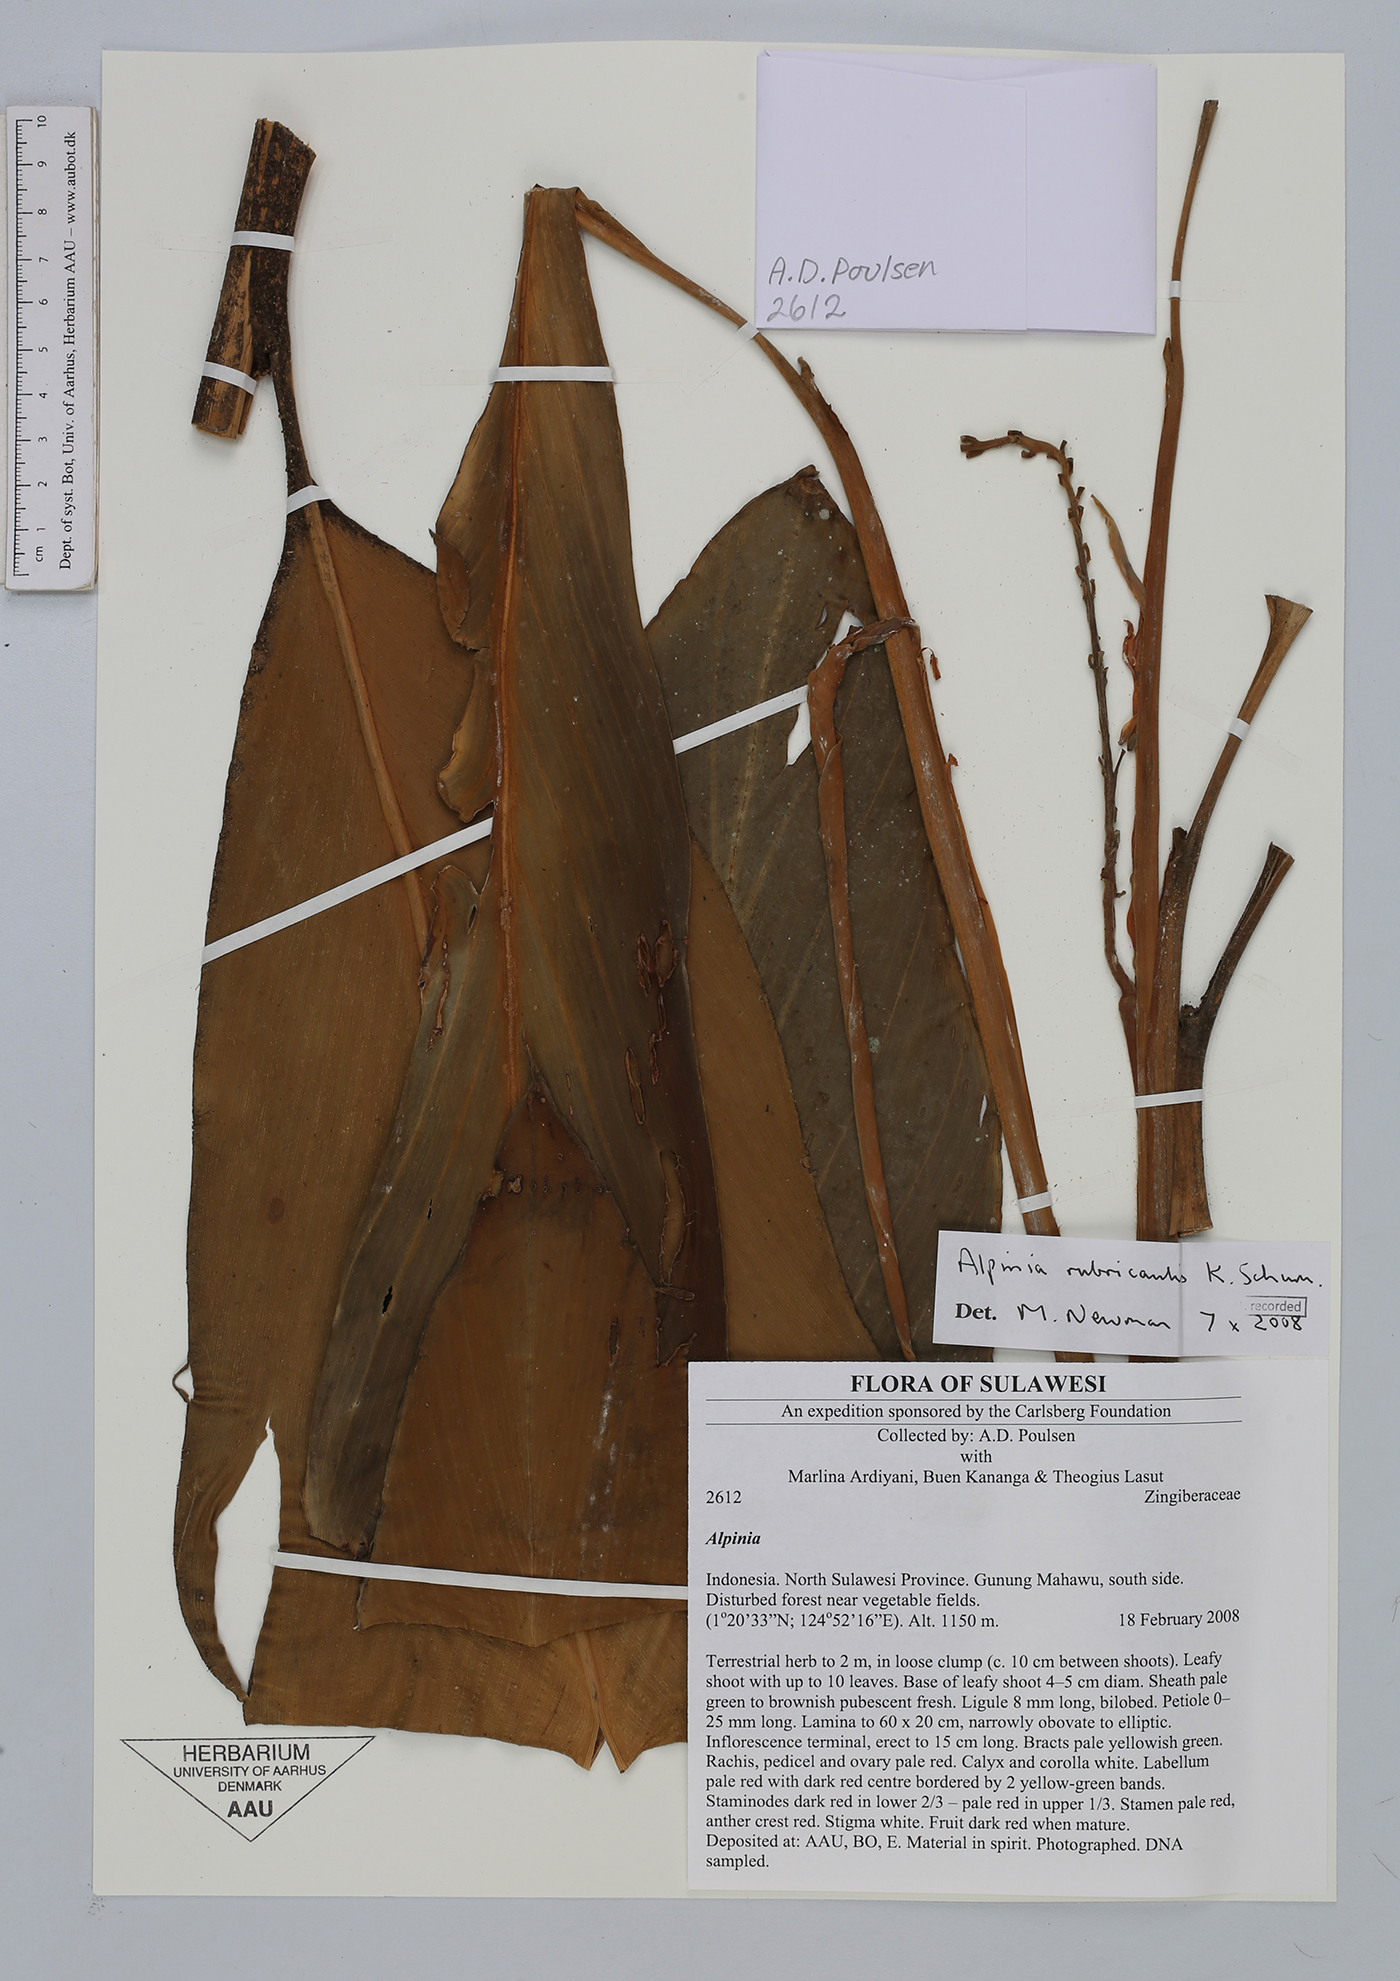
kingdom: Plantae
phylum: Tracheophyta
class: Liliopsida
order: Zingiberales
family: Zingiberaceae
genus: Alpinia
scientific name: Alpinia rubricaulis
